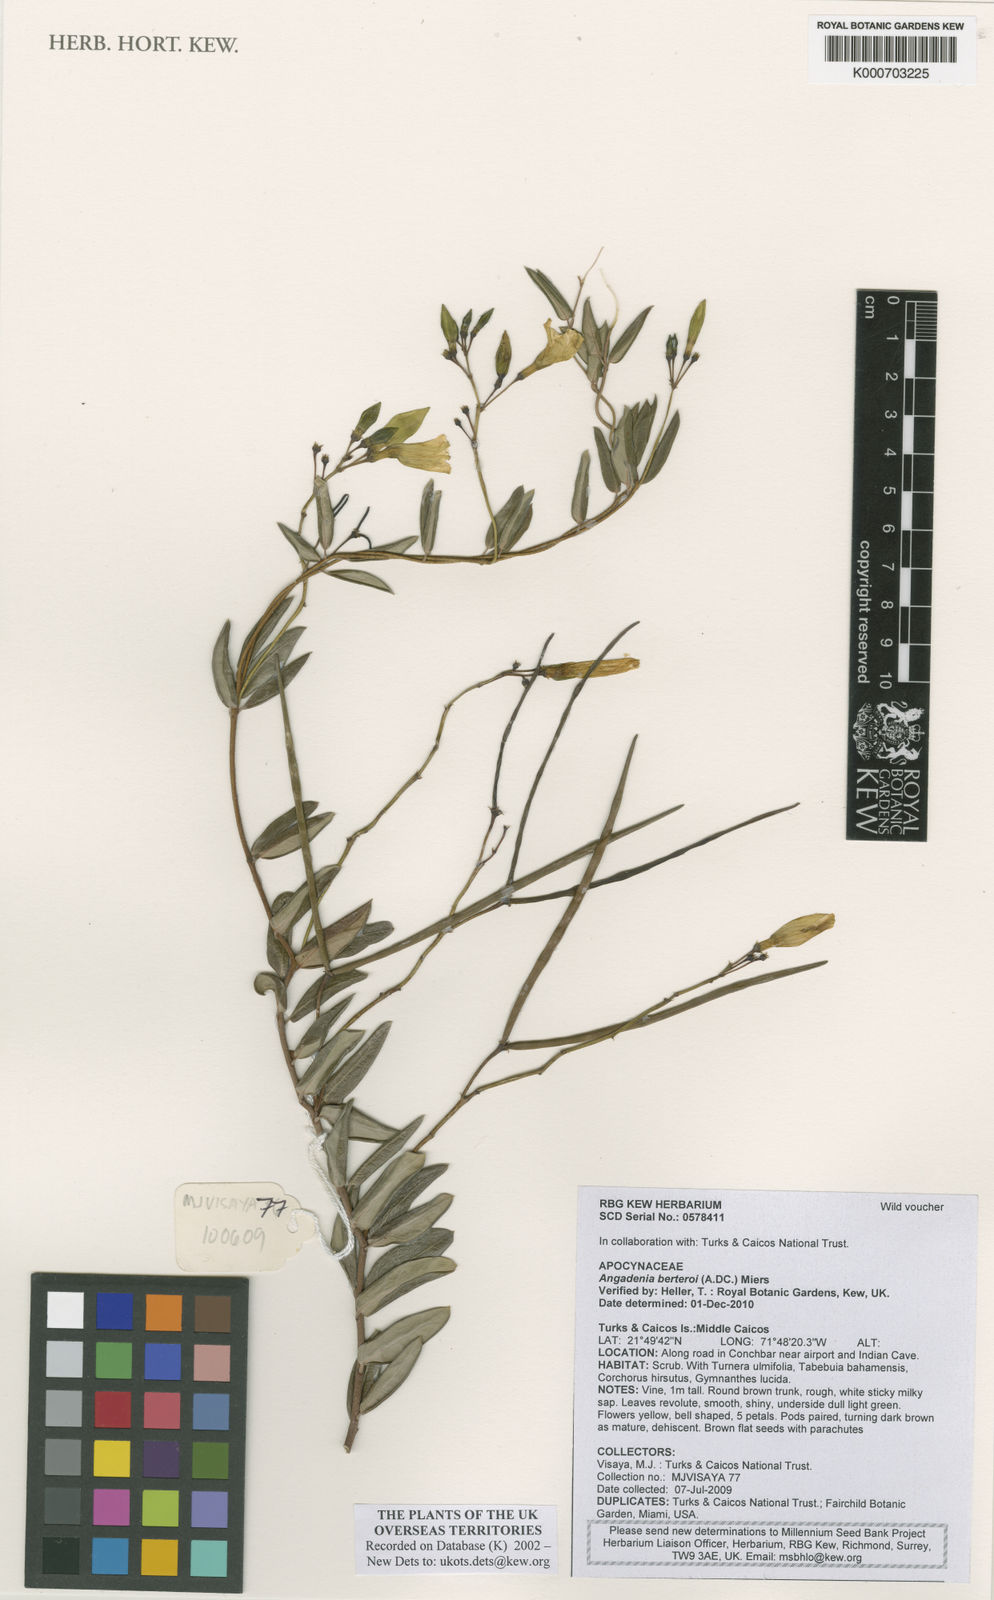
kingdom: Plantae
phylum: Tracheophyta
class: Magnoliopsida
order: Gentianales
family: Apocynaceae
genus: Angadenia
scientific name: Angadenia berteroi
